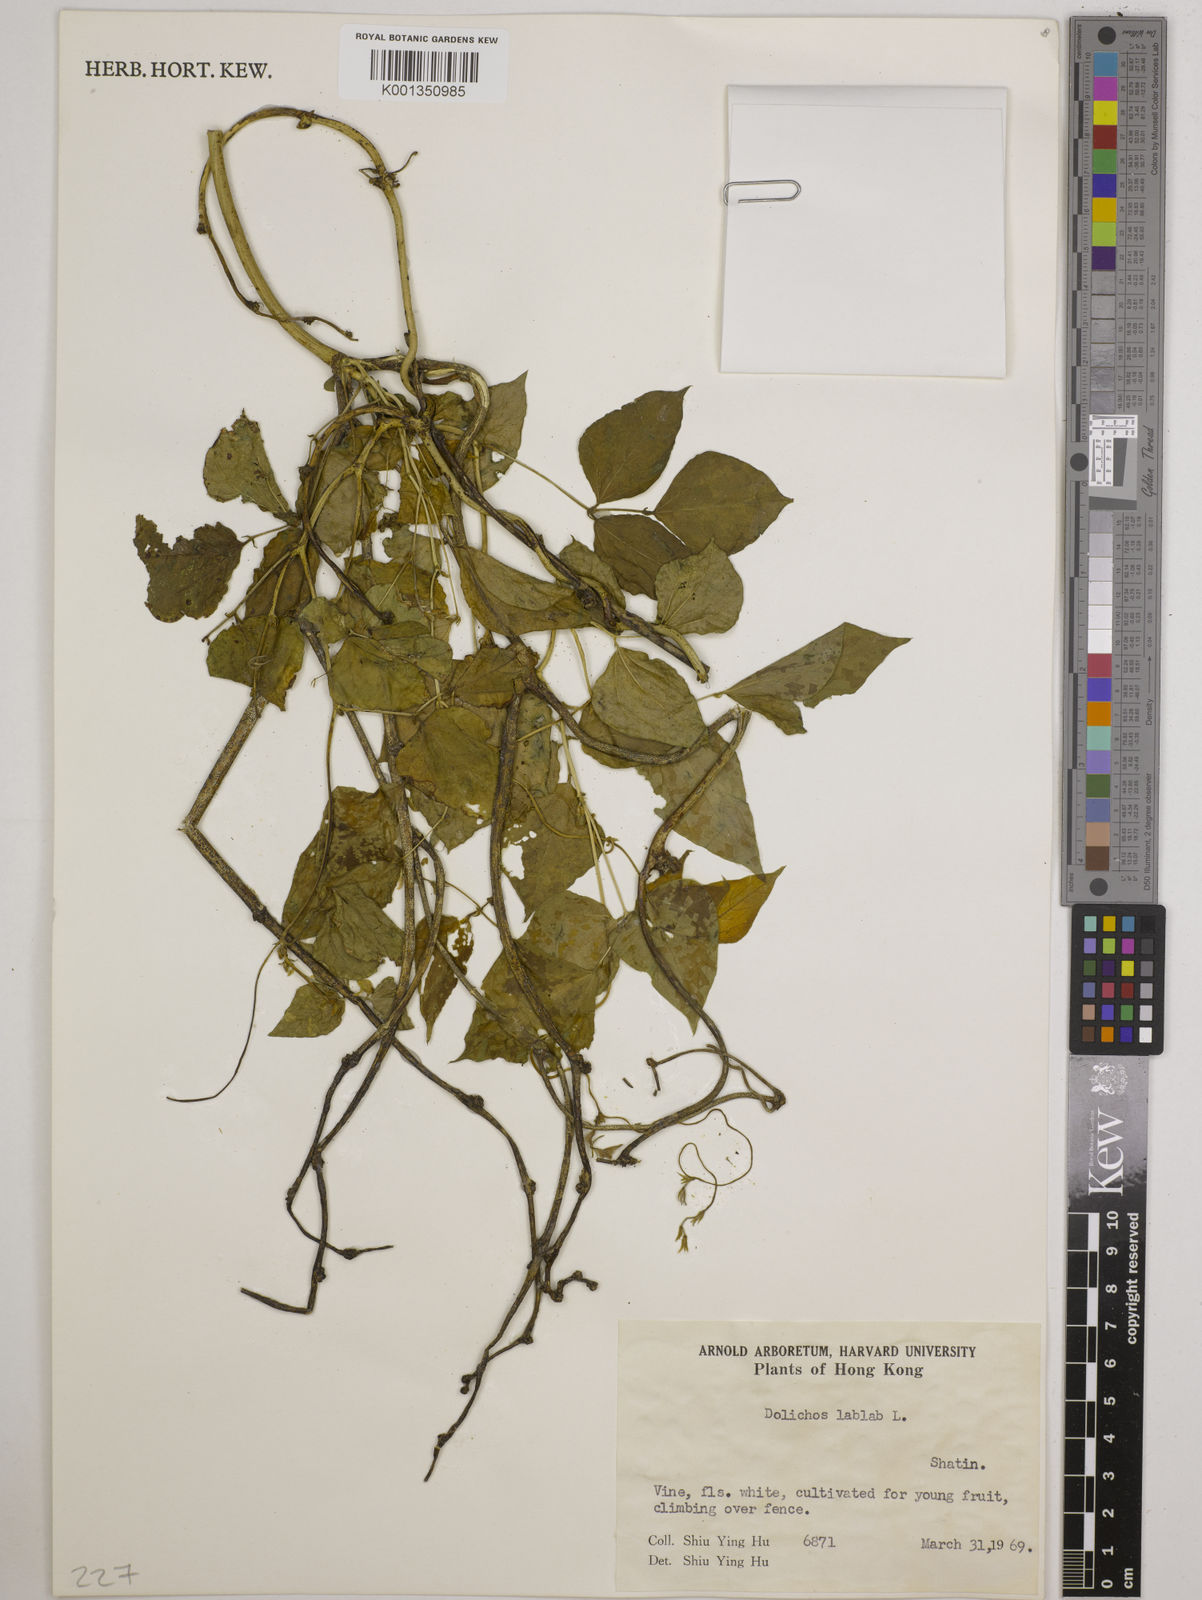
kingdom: Plantae
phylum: Tracheophyta
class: Magnoliopsida
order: Fabales
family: Fabaceae
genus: Lablab
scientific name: Lablab purpureus
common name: Lablab-bean
